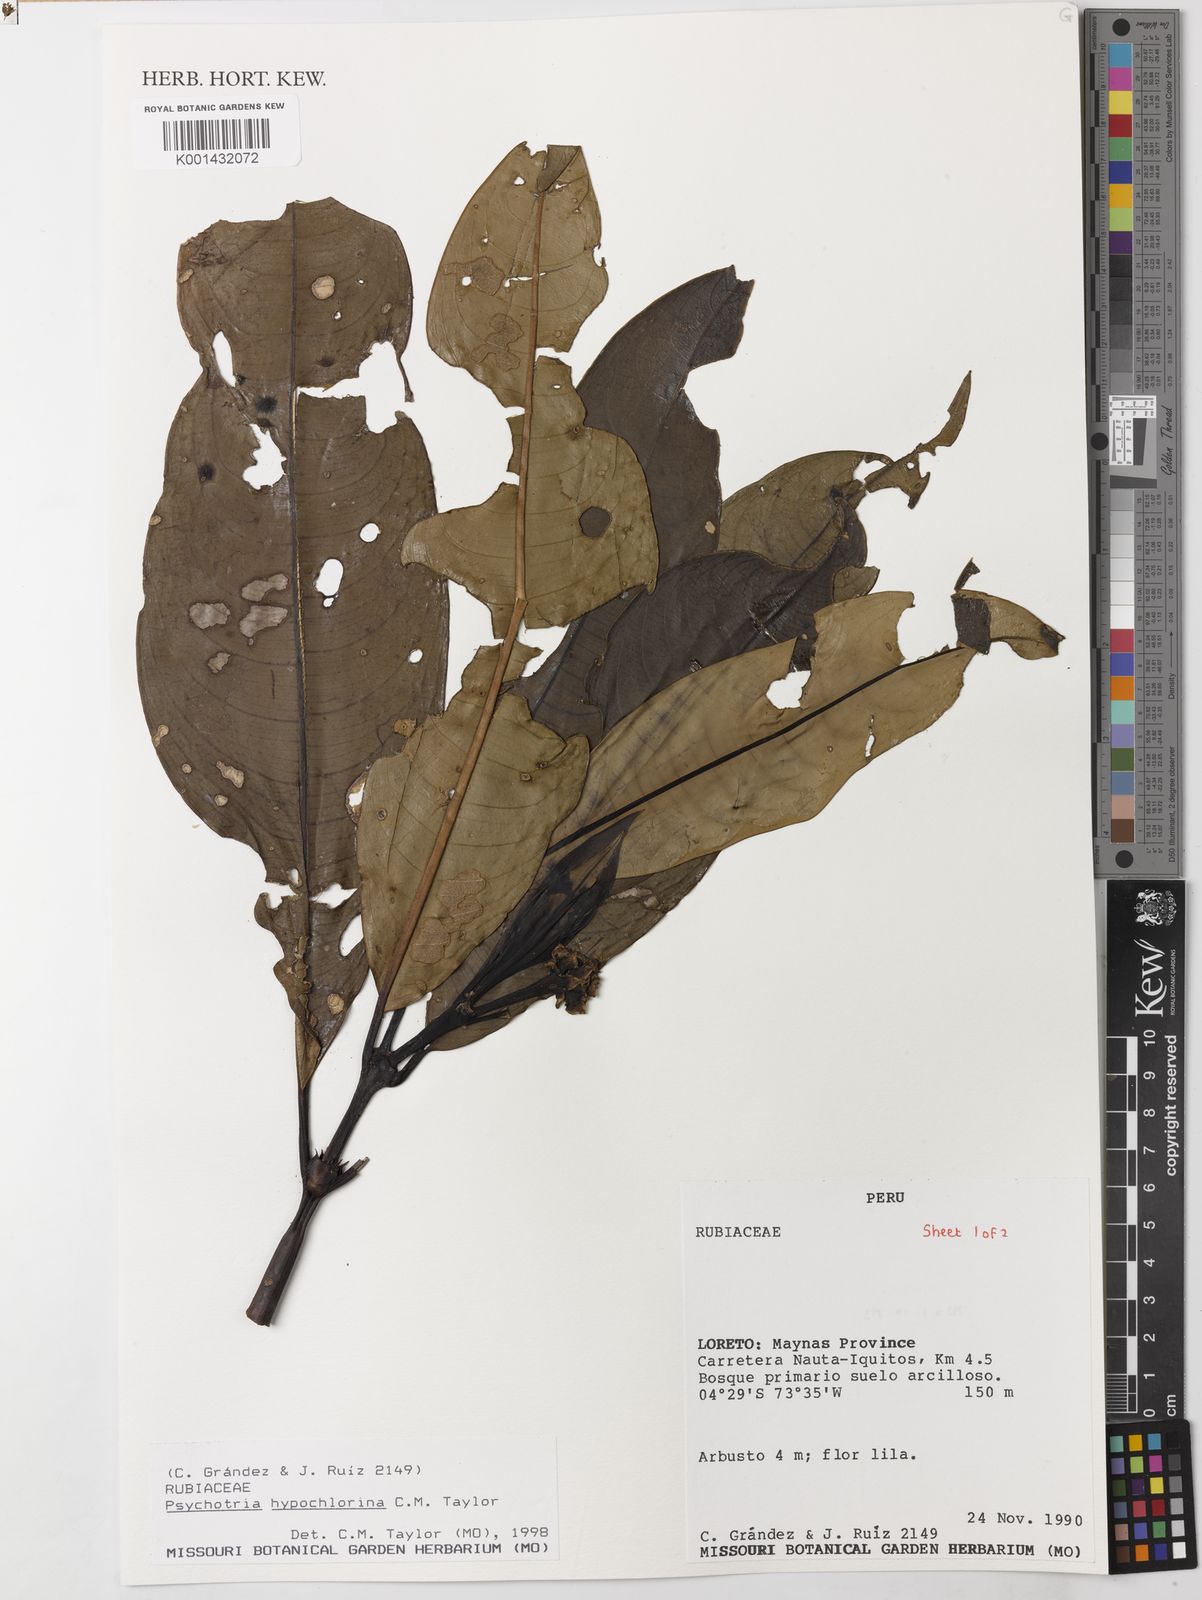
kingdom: Plantae
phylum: Tracheophyta
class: Magnoliopsida
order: Gentianales
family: Rubiaceae
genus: Palicourea
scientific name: Palicourea hypochlorina
